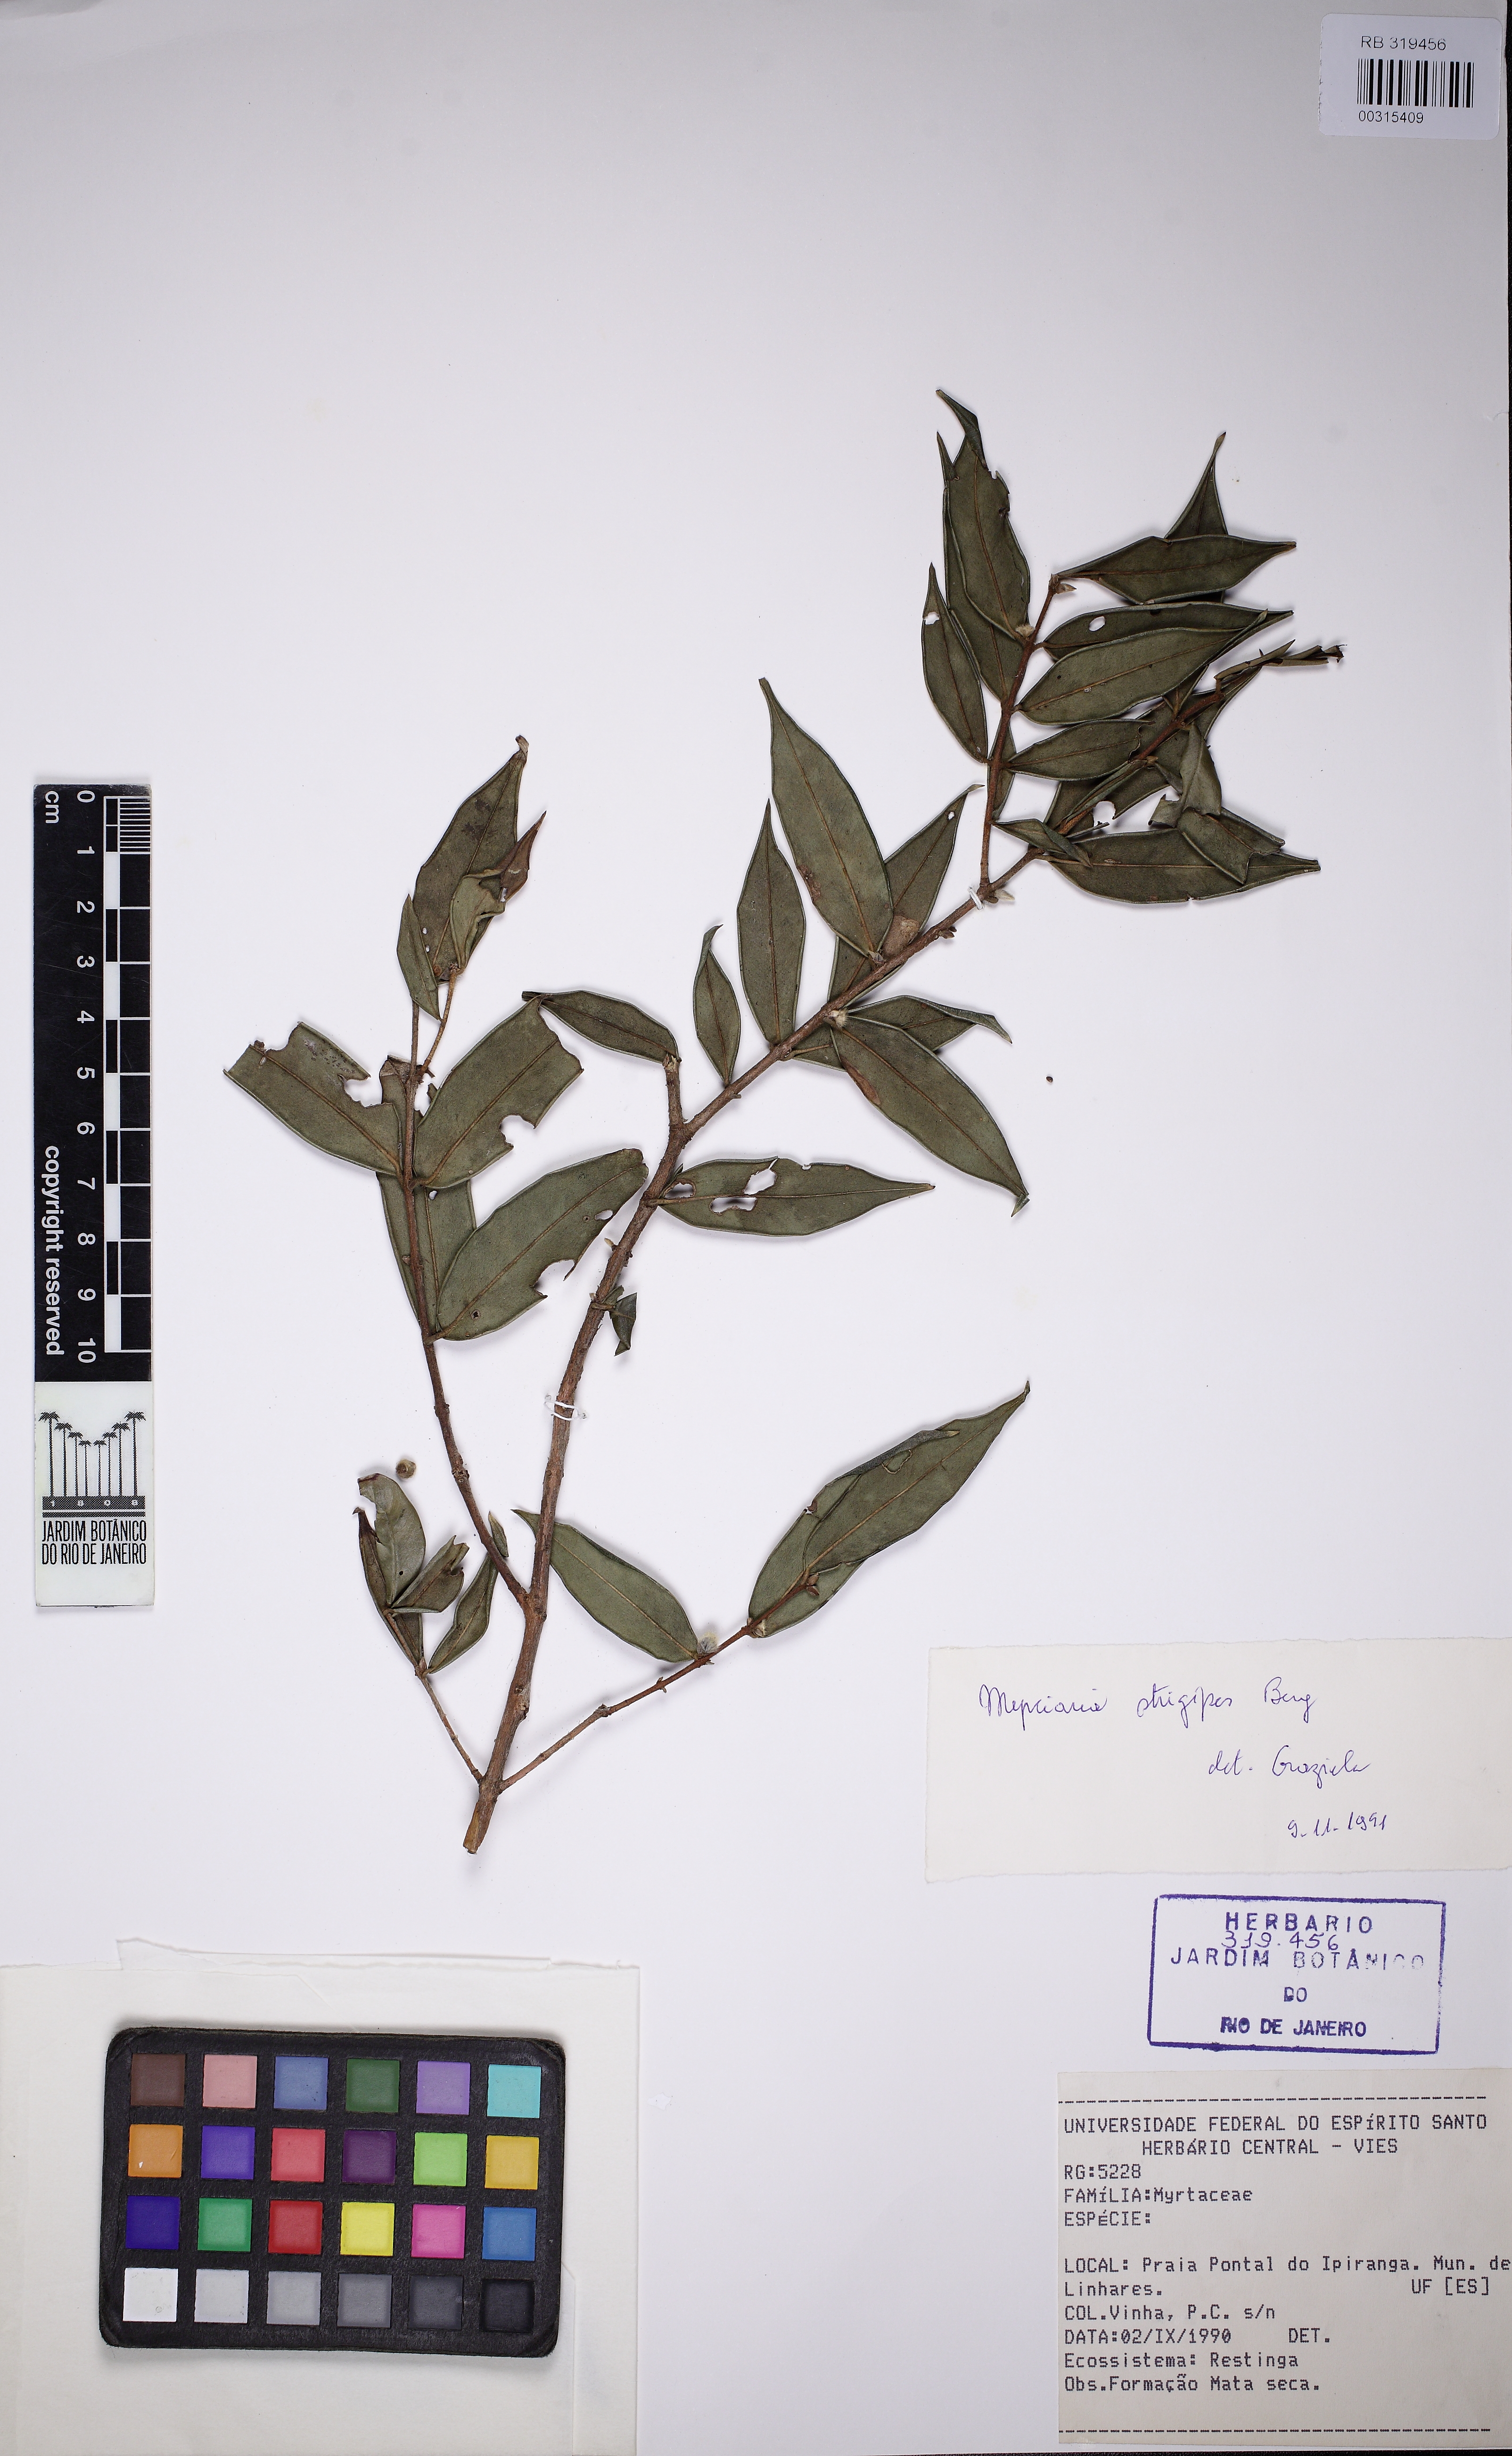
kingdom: Plantae
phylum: Tracheophyta
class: Magnoliopsida
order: Myrtales
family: Myrtaceae
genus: Myrciaria
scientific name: Myrciaria strigipes
